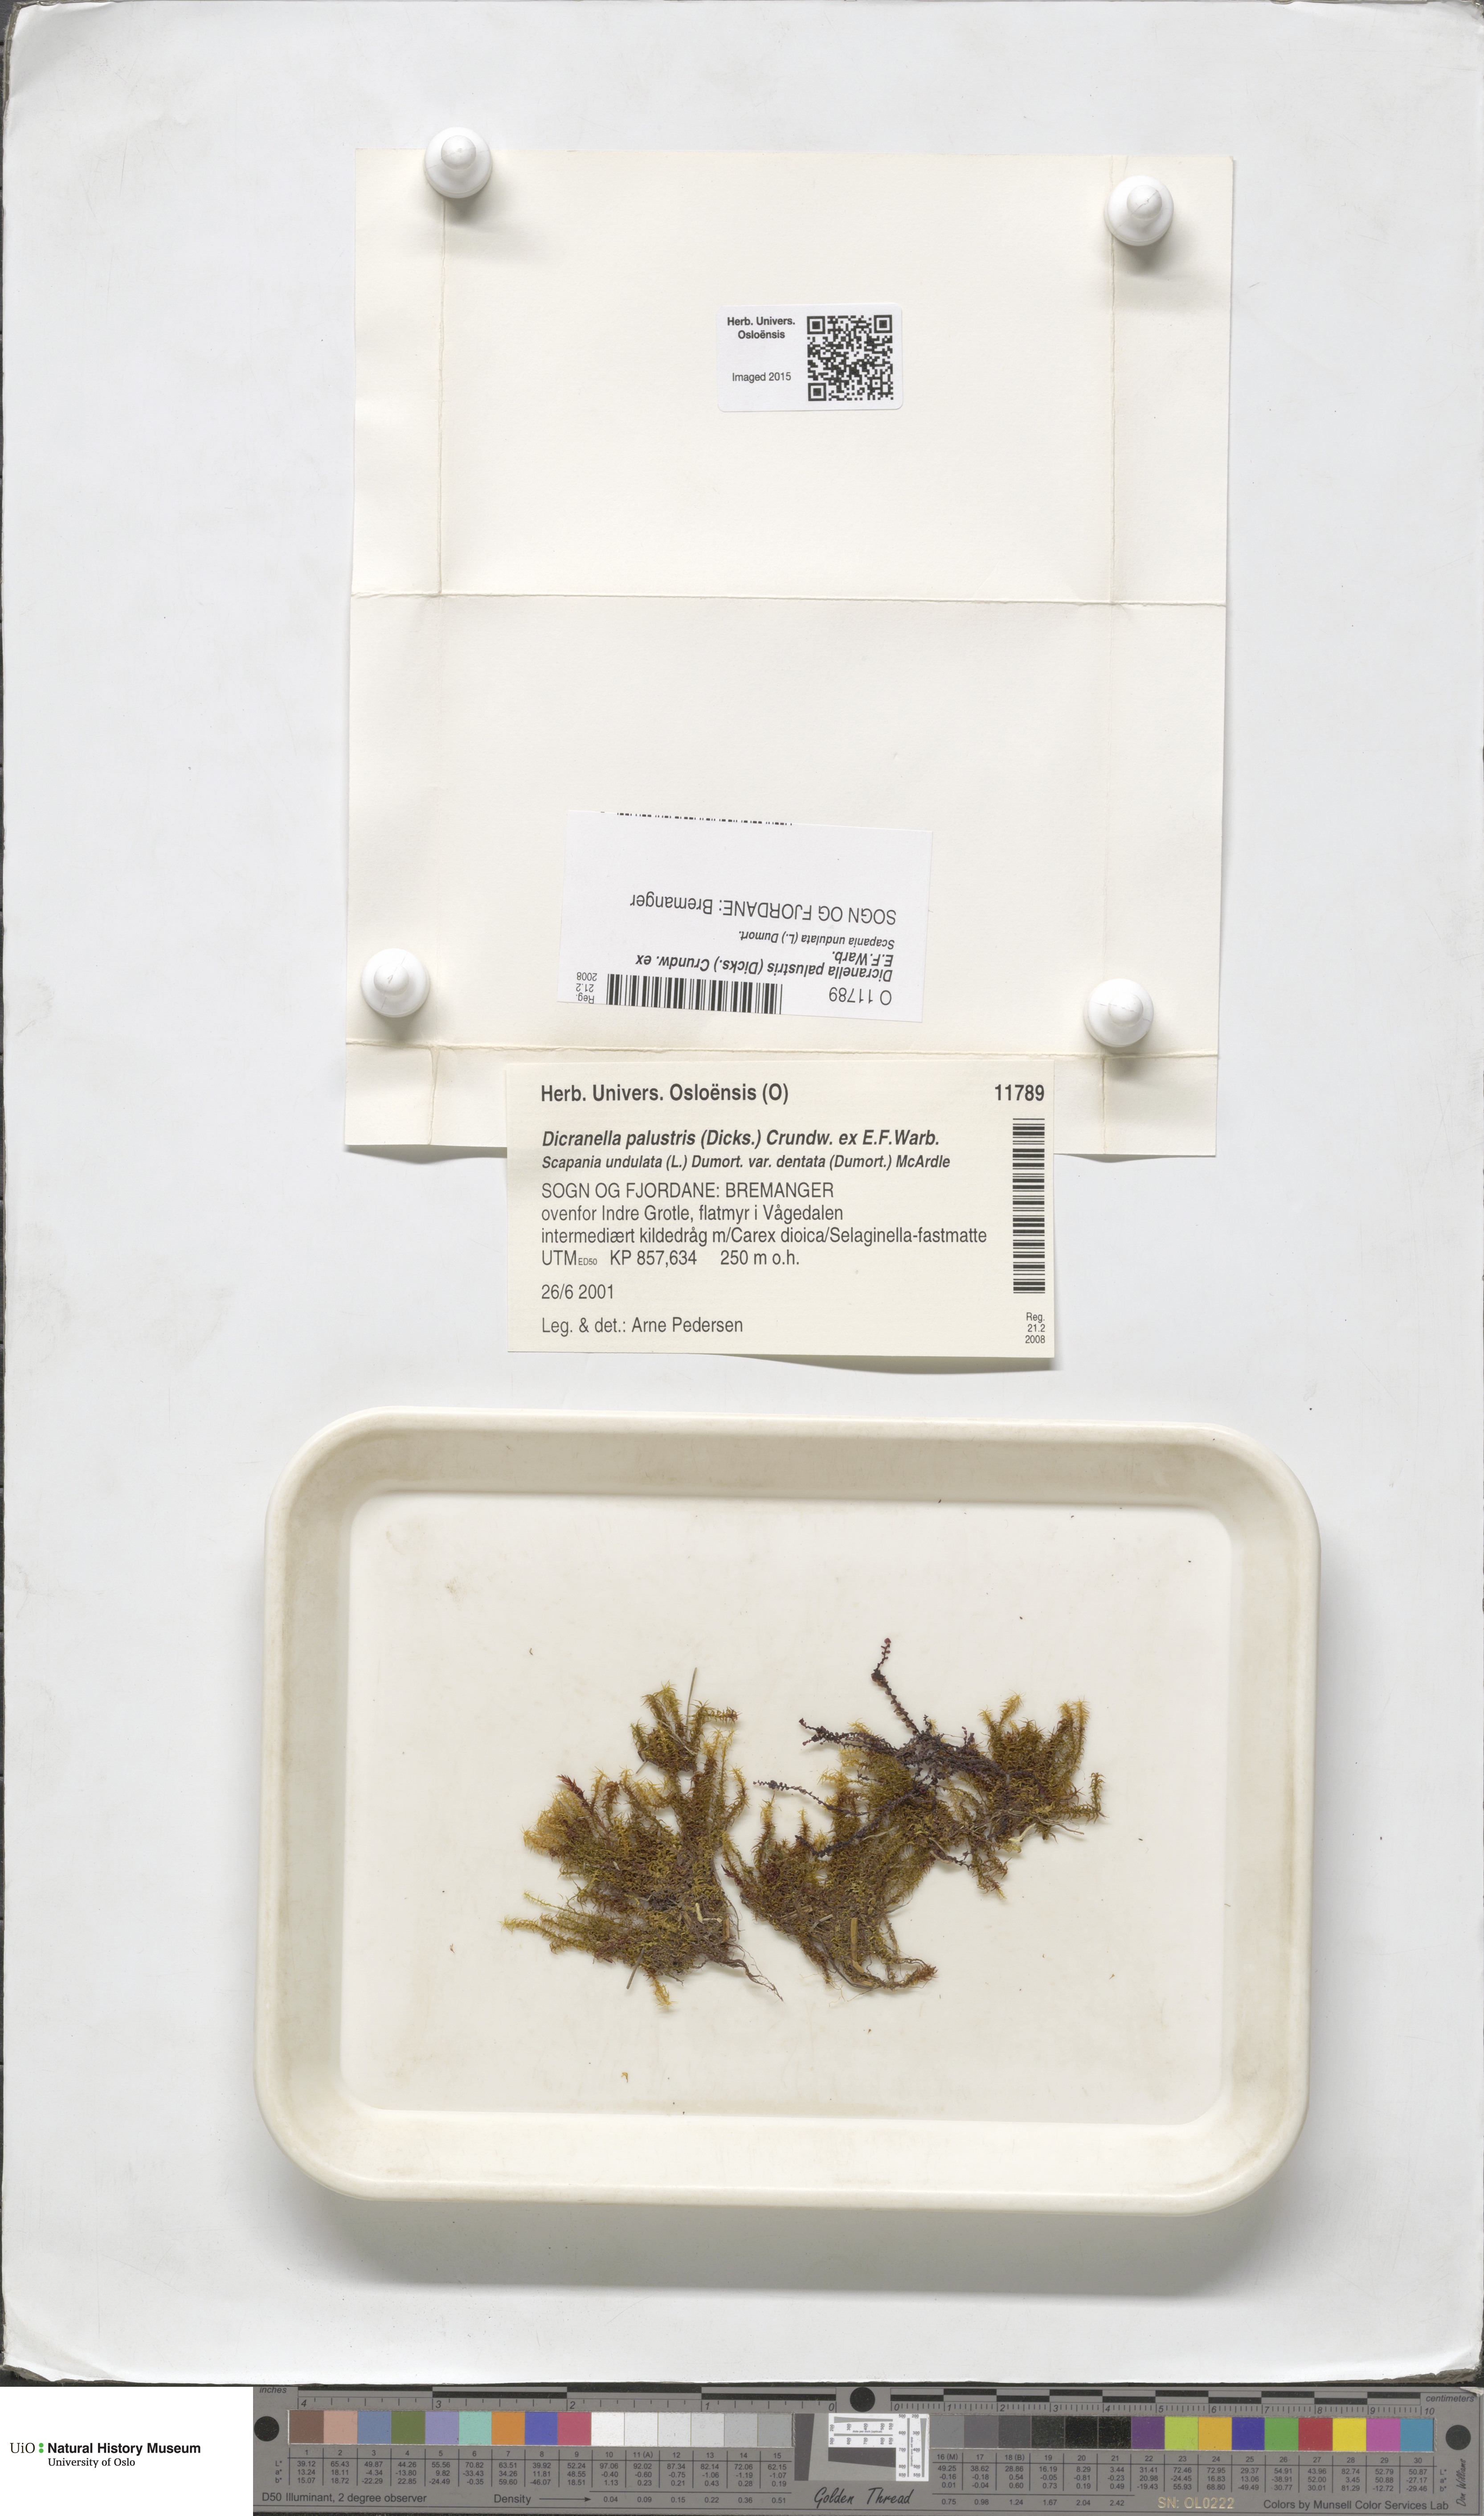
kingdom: Plantae
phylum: Bryophyta
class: Bryopsida
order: Dicranales
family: Aongstroemiaceae
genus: Diobelonella
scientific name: Diobelonella palustris
